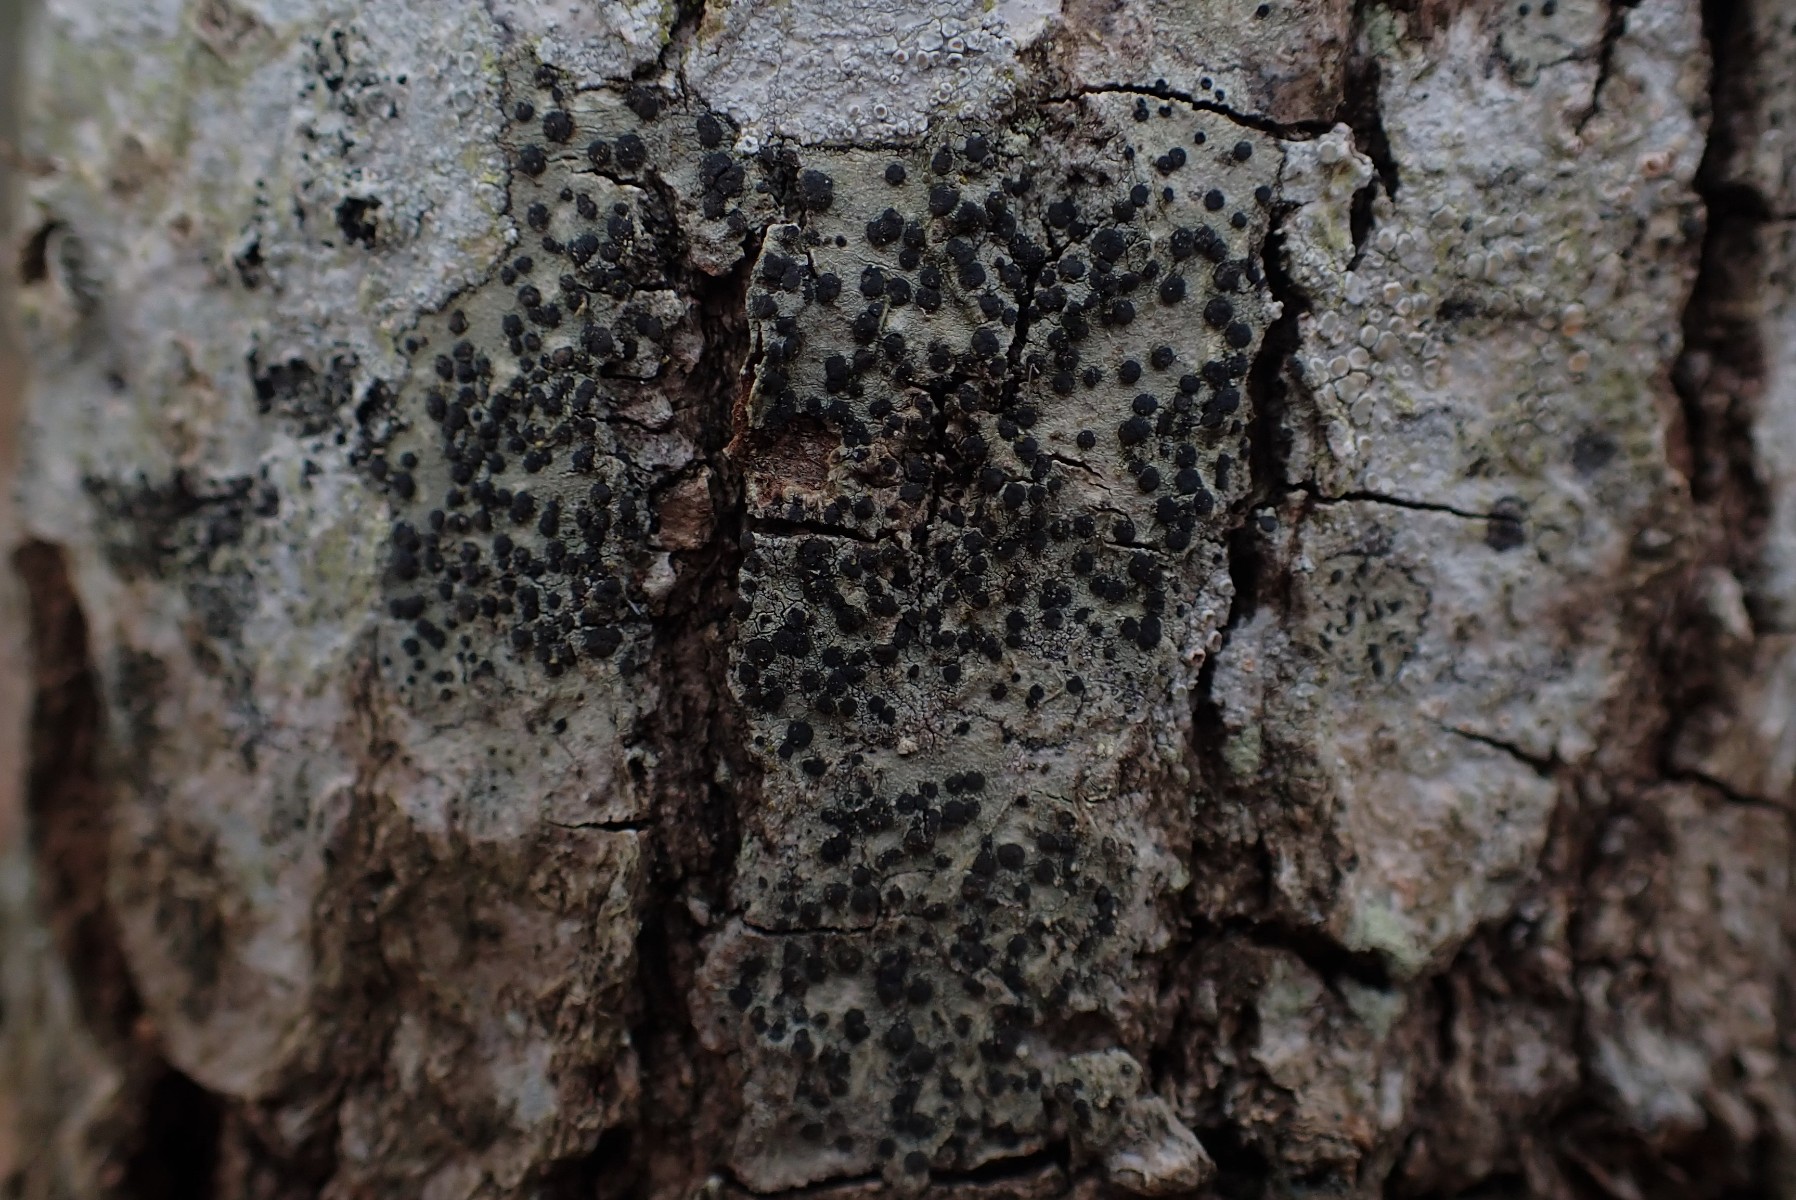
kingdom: Fungi
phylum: Ascomycota
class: Lecanoromycetes
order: Lecanorales
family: Lecanoraceae
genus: Lecidella
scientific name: Lecidella elaeochroma
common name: grågrøn skivelav
